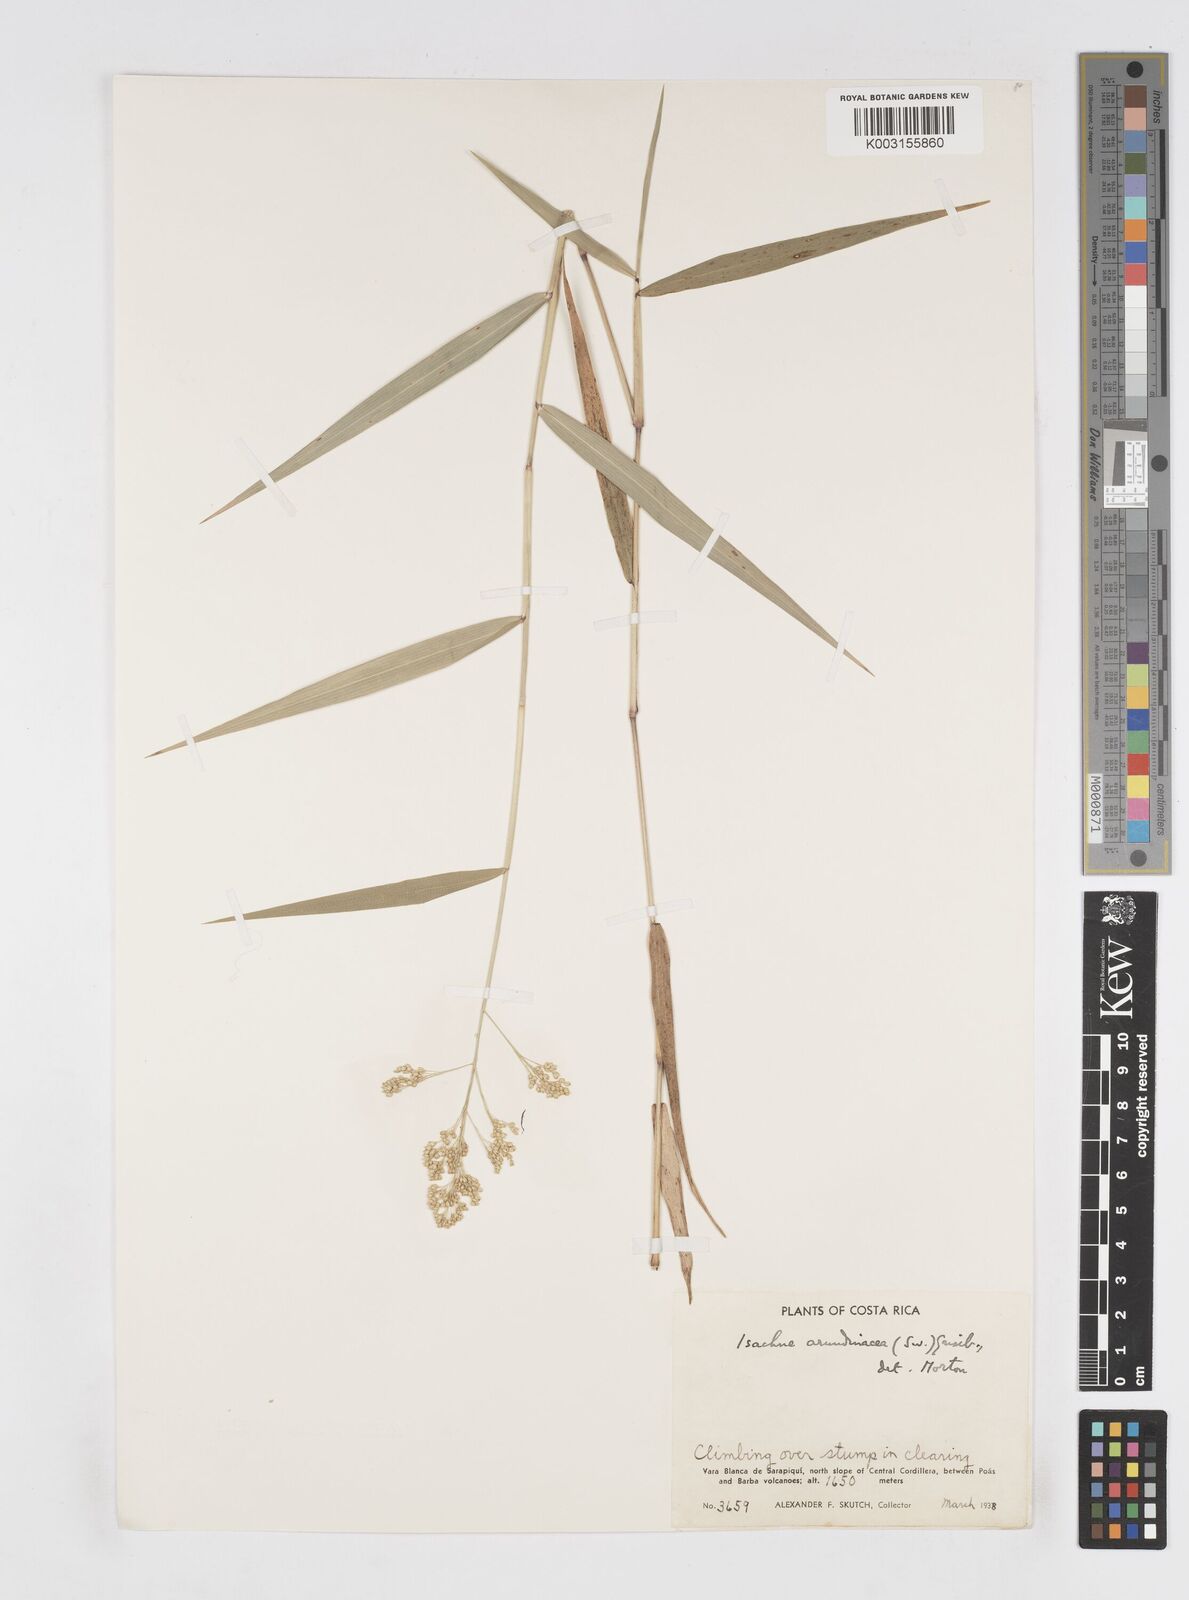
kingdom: Plantae
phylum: Tracheophyta
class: Liliopsida
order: Poales
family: Poaceae
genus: Isachne
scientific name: Isachne arundinacea
